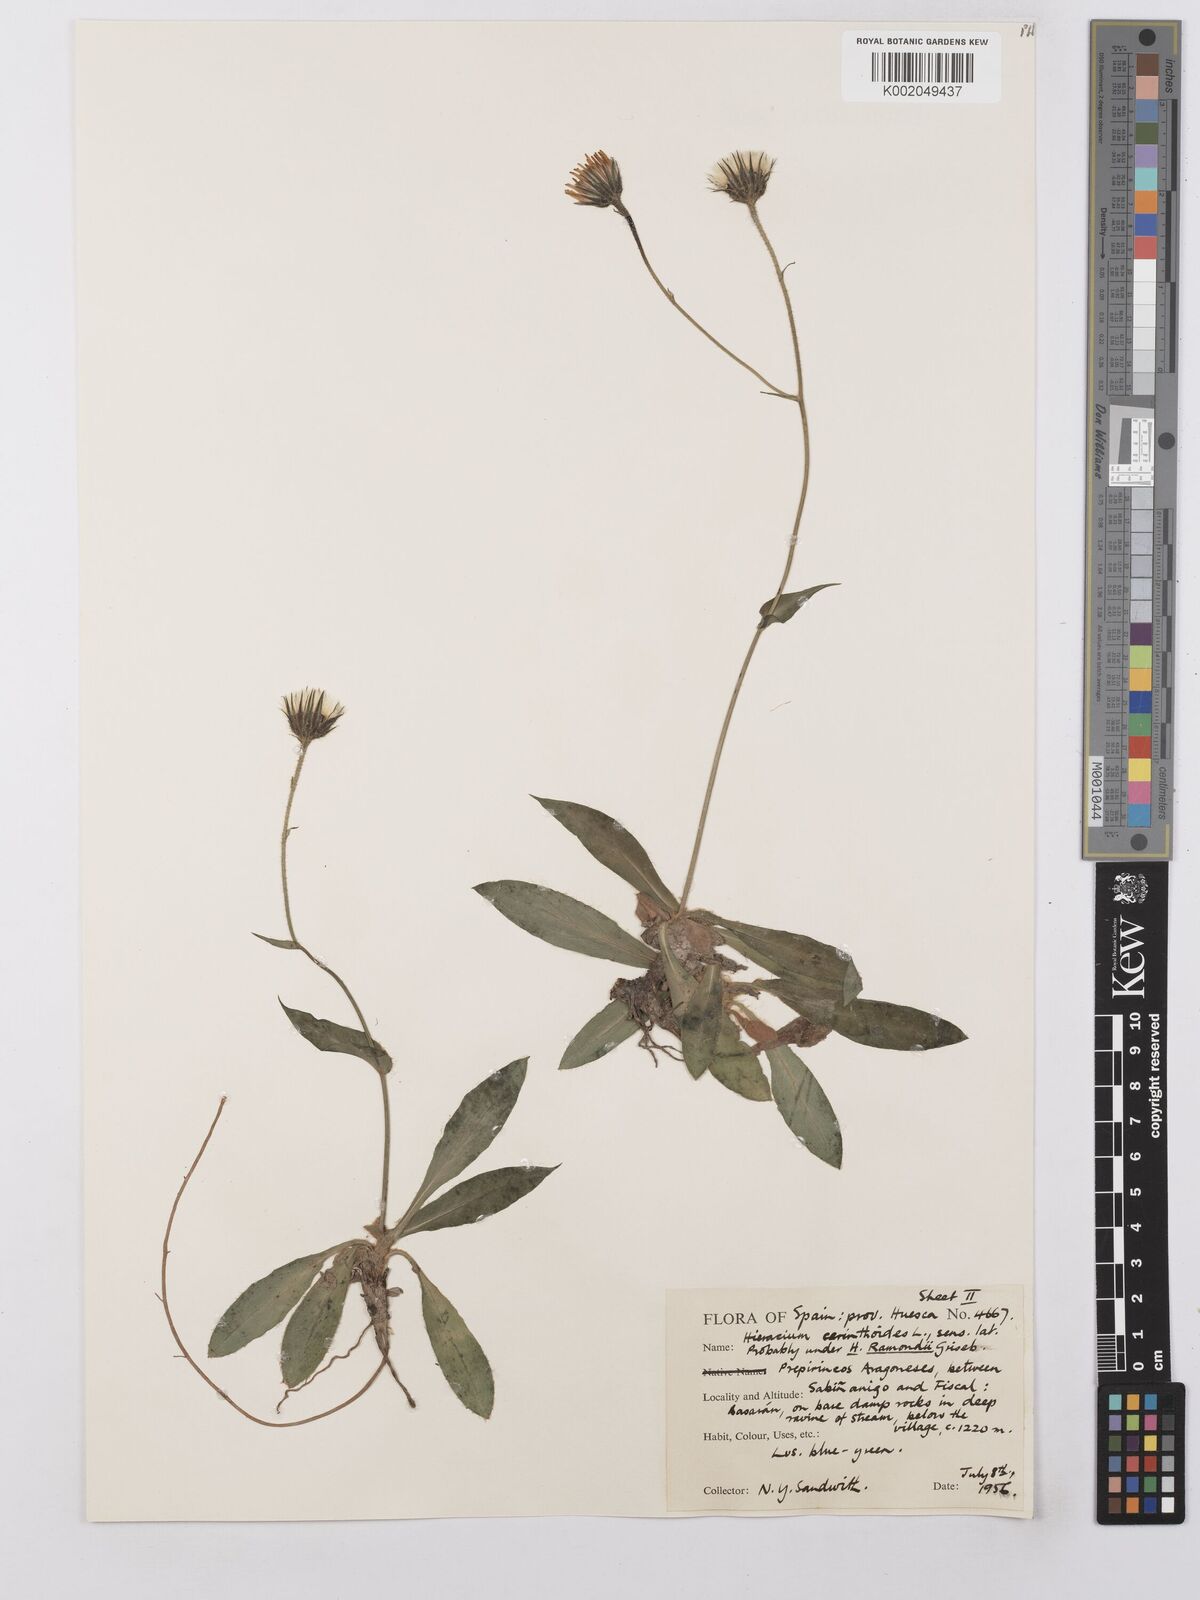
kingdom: Plantae
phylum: Tracheophyta
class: Magnoliopsida
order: Asterales
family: Asteraceae
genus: Hieracium
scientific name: Hieracium ramondii
